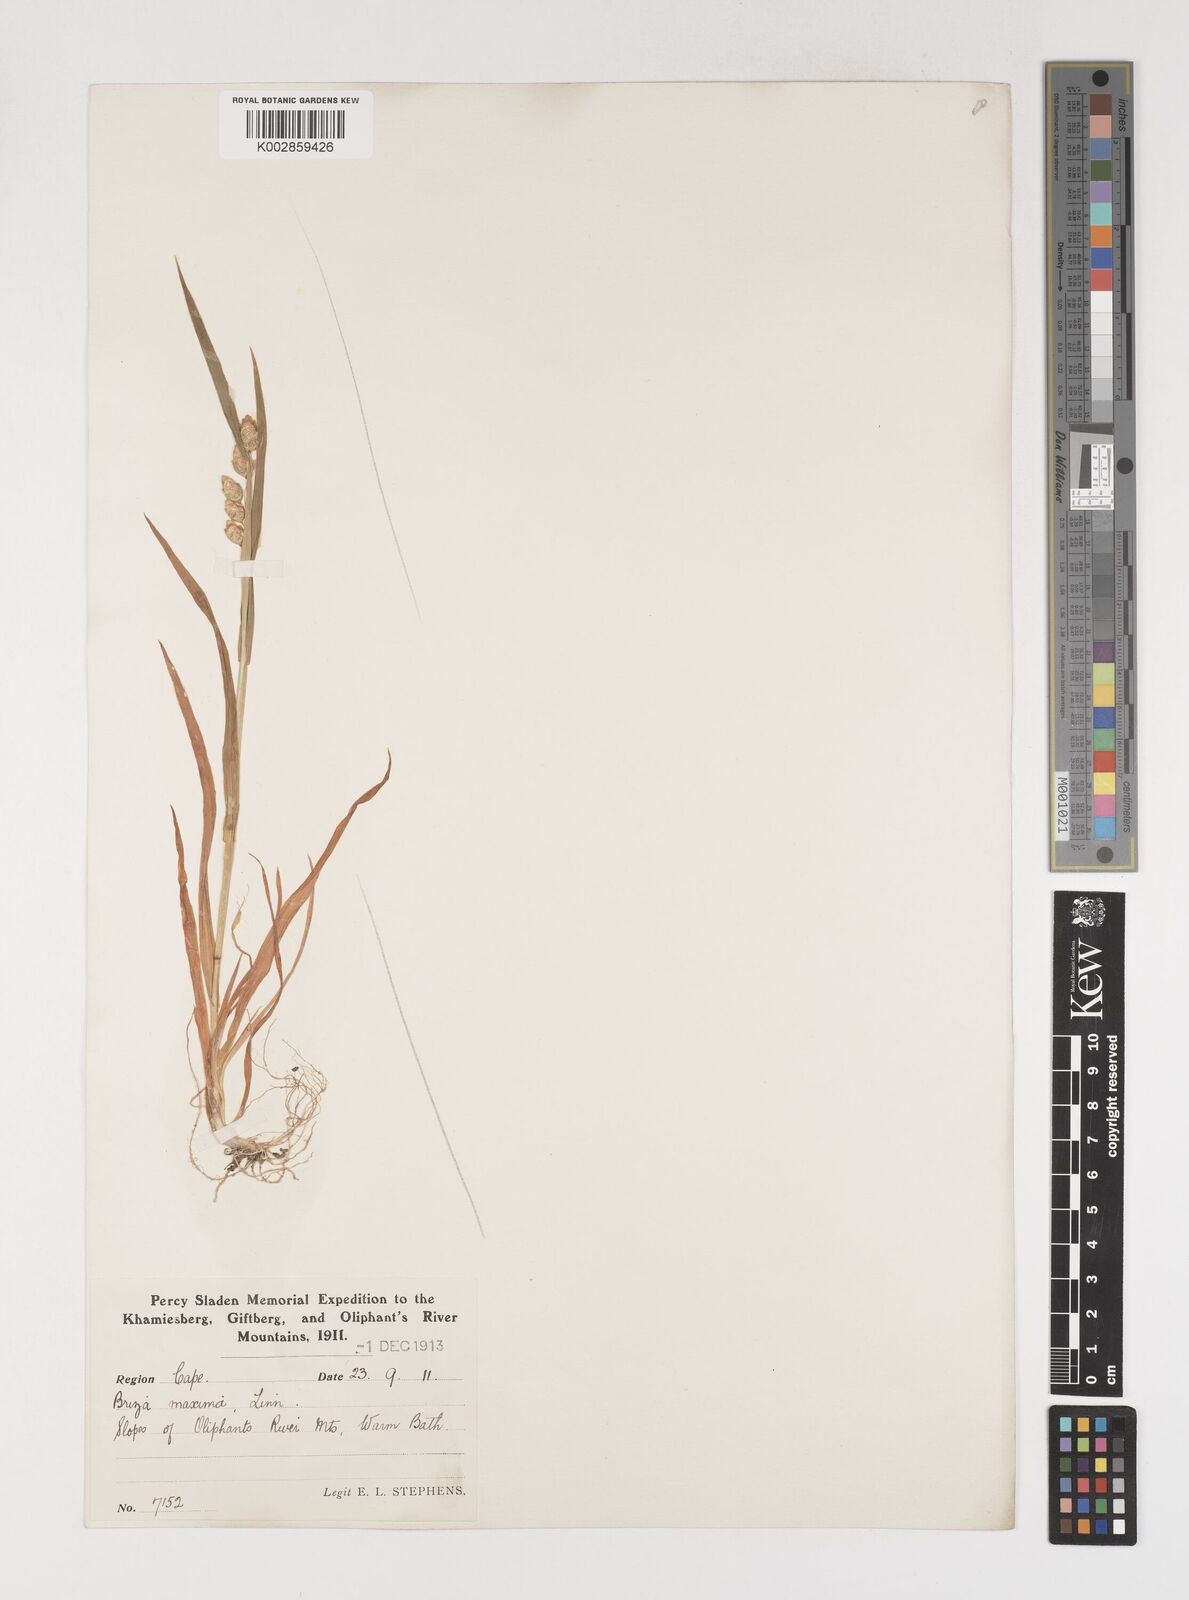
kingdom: Plantae
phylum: Tracheophyta
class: Liliopsida
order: Poales
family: Poaceae
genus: Briza
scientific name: Briza maxima
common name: Big quakinggrass
